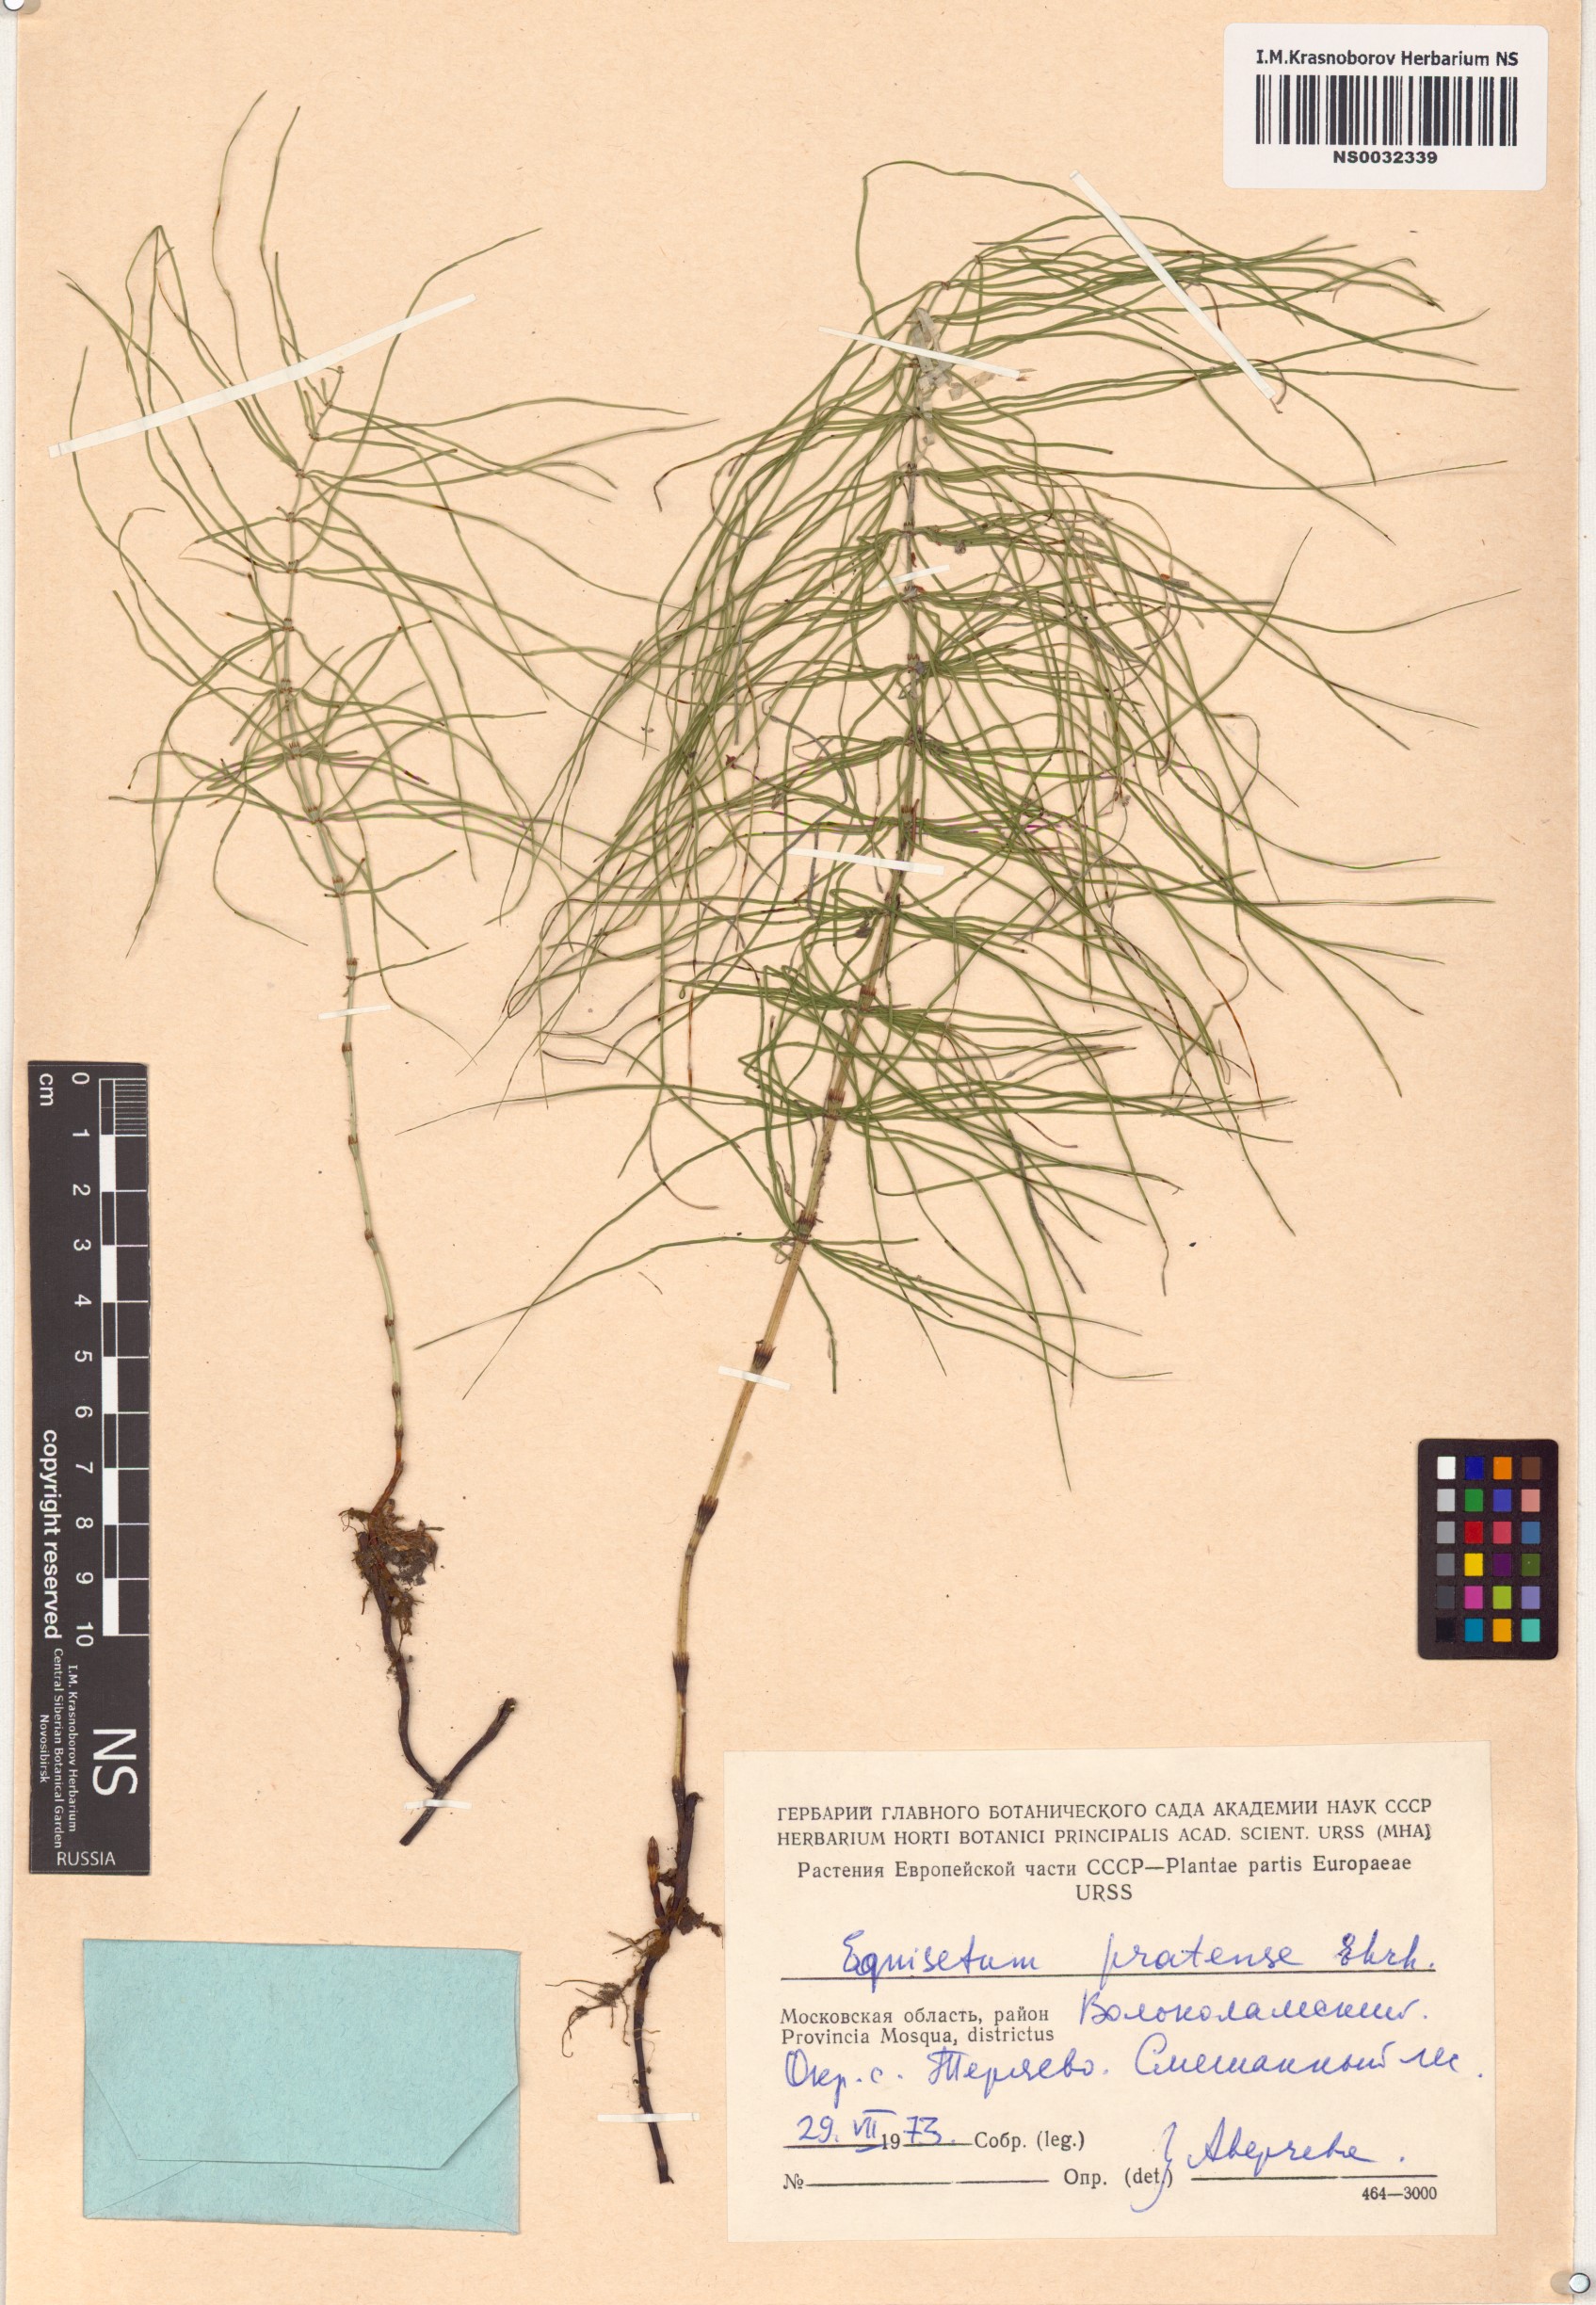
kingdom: Plantae
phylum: Tracheophyta
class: Polypodiopsida
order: Equisetales
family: Equisetaceae
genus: Equisetum
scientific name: Equisetum pratense
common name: Meadow horsetail
